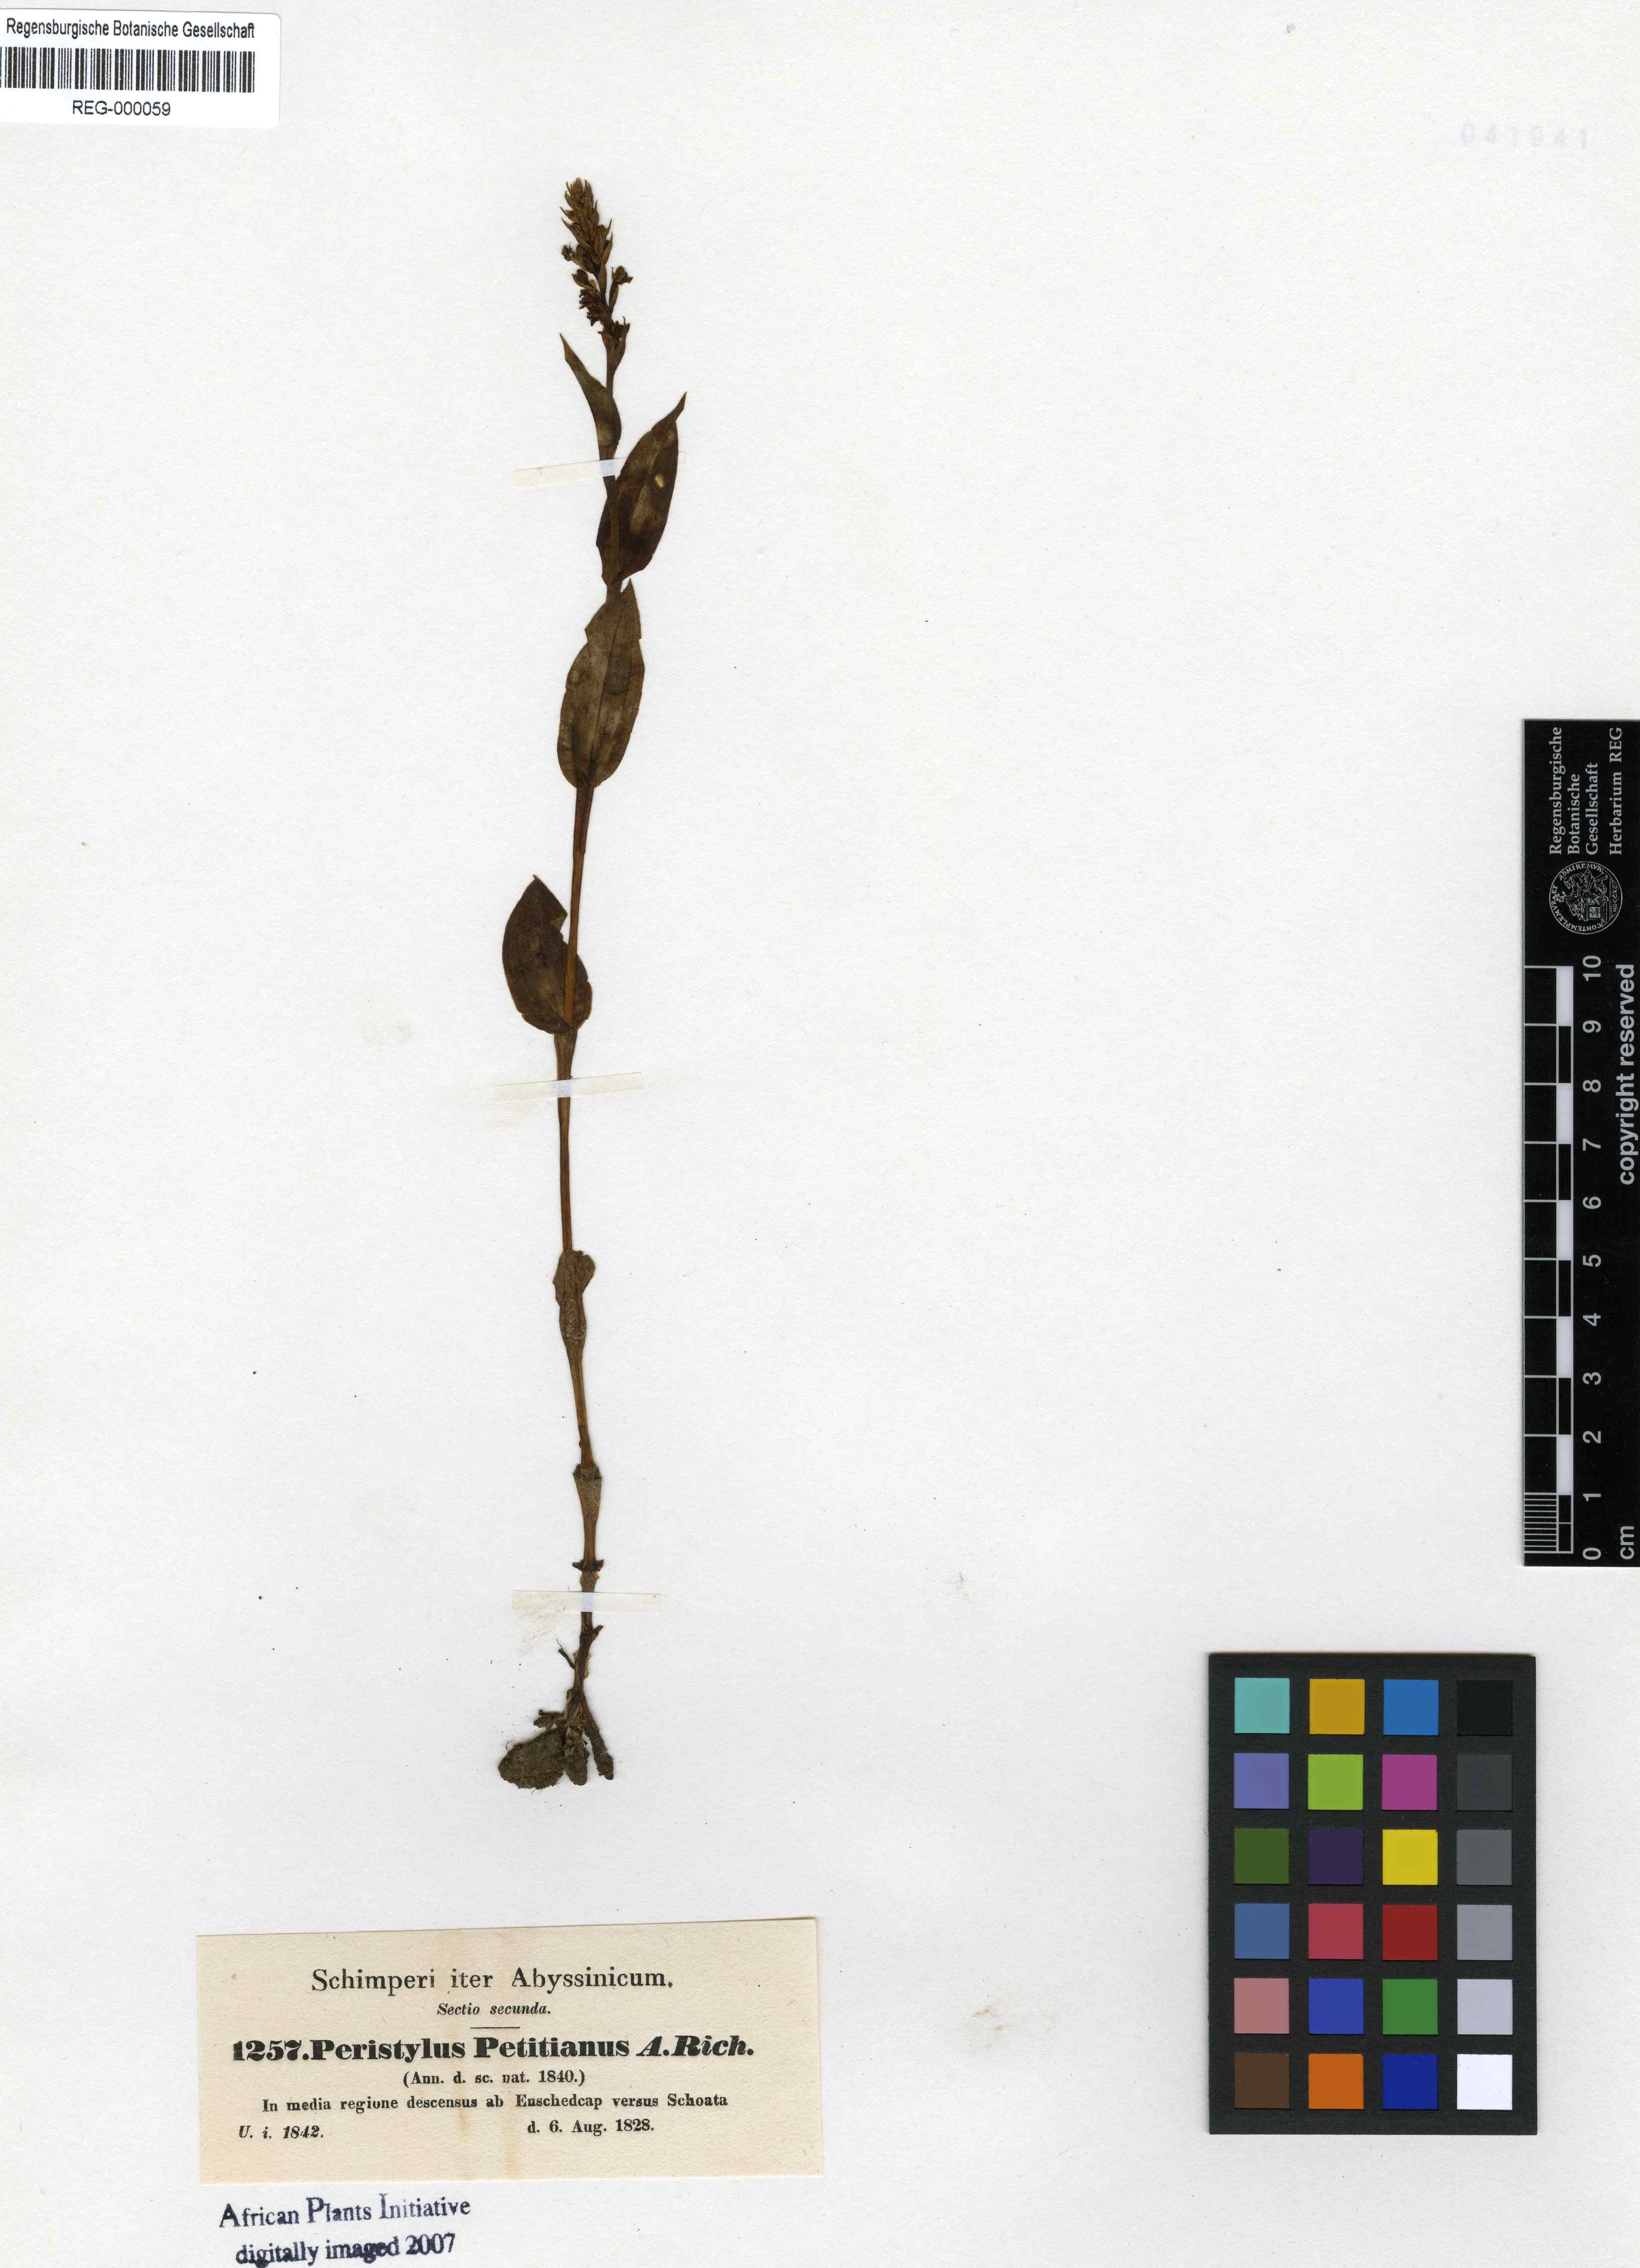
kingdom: Plantae
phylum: Tracheophyta
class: Liliopsida
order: Asparagales
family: Orchidaceae
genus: Habenaria
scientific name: Habenaria petitiana
